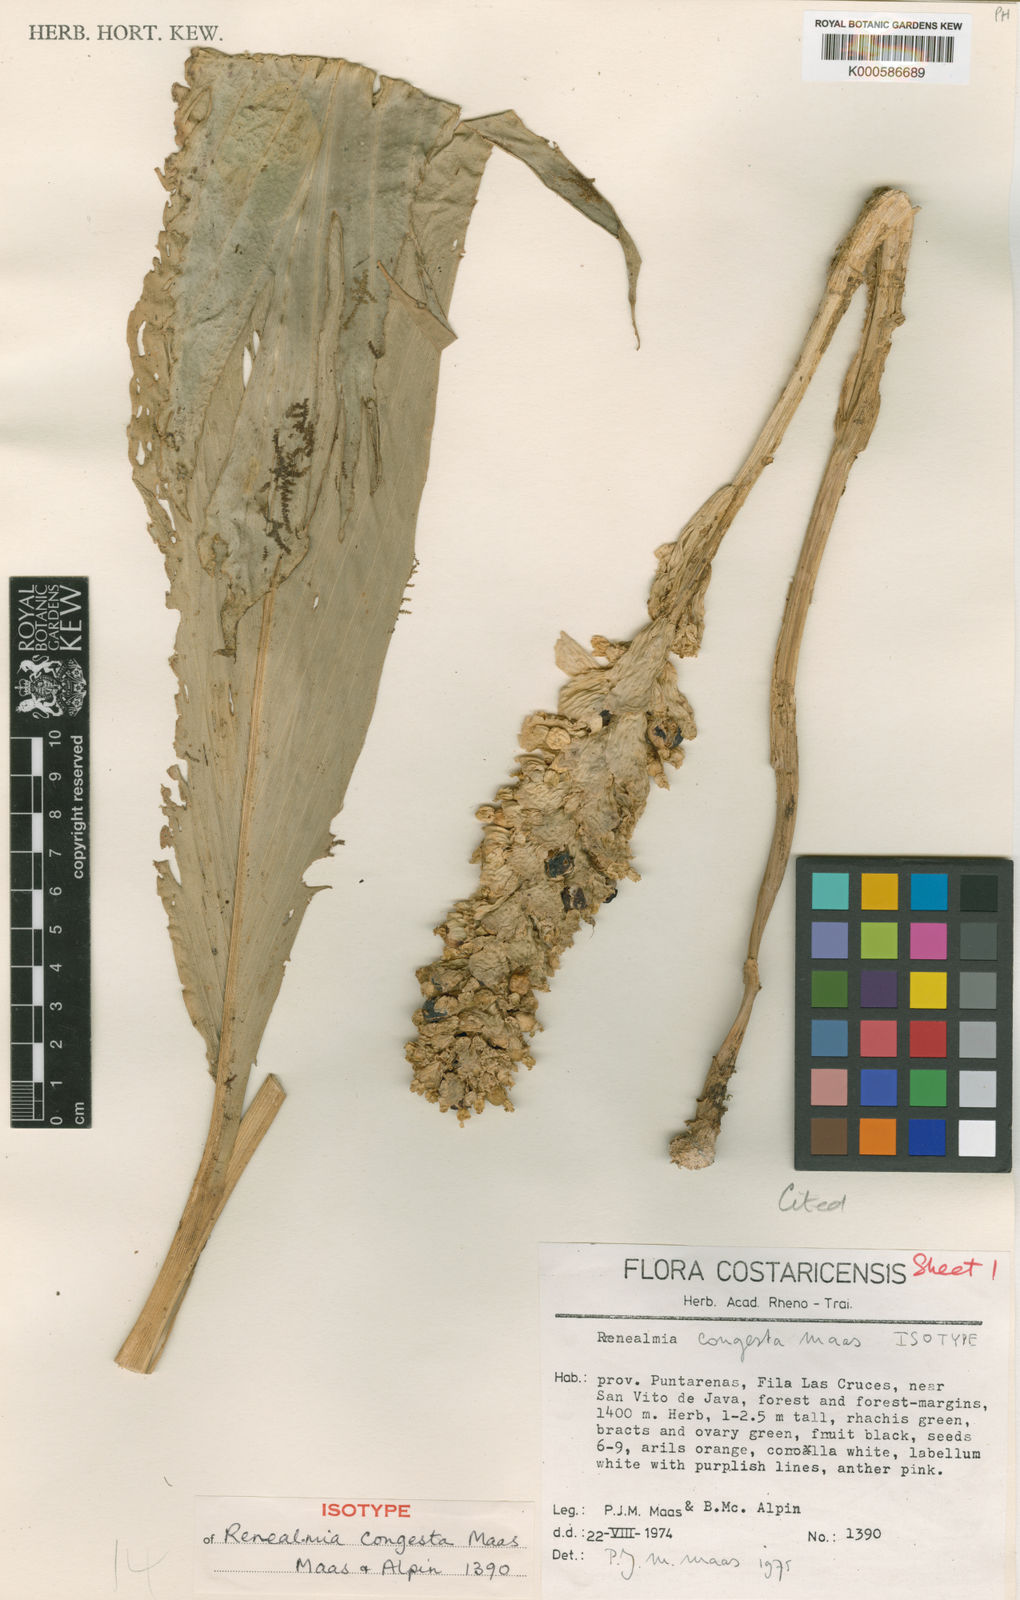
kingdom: Plantae
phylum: Tracheophyta
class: Liliopsida
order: Zingiberales
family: Zingiberaceae
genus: Renealmia
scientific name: Renealmia congesta
